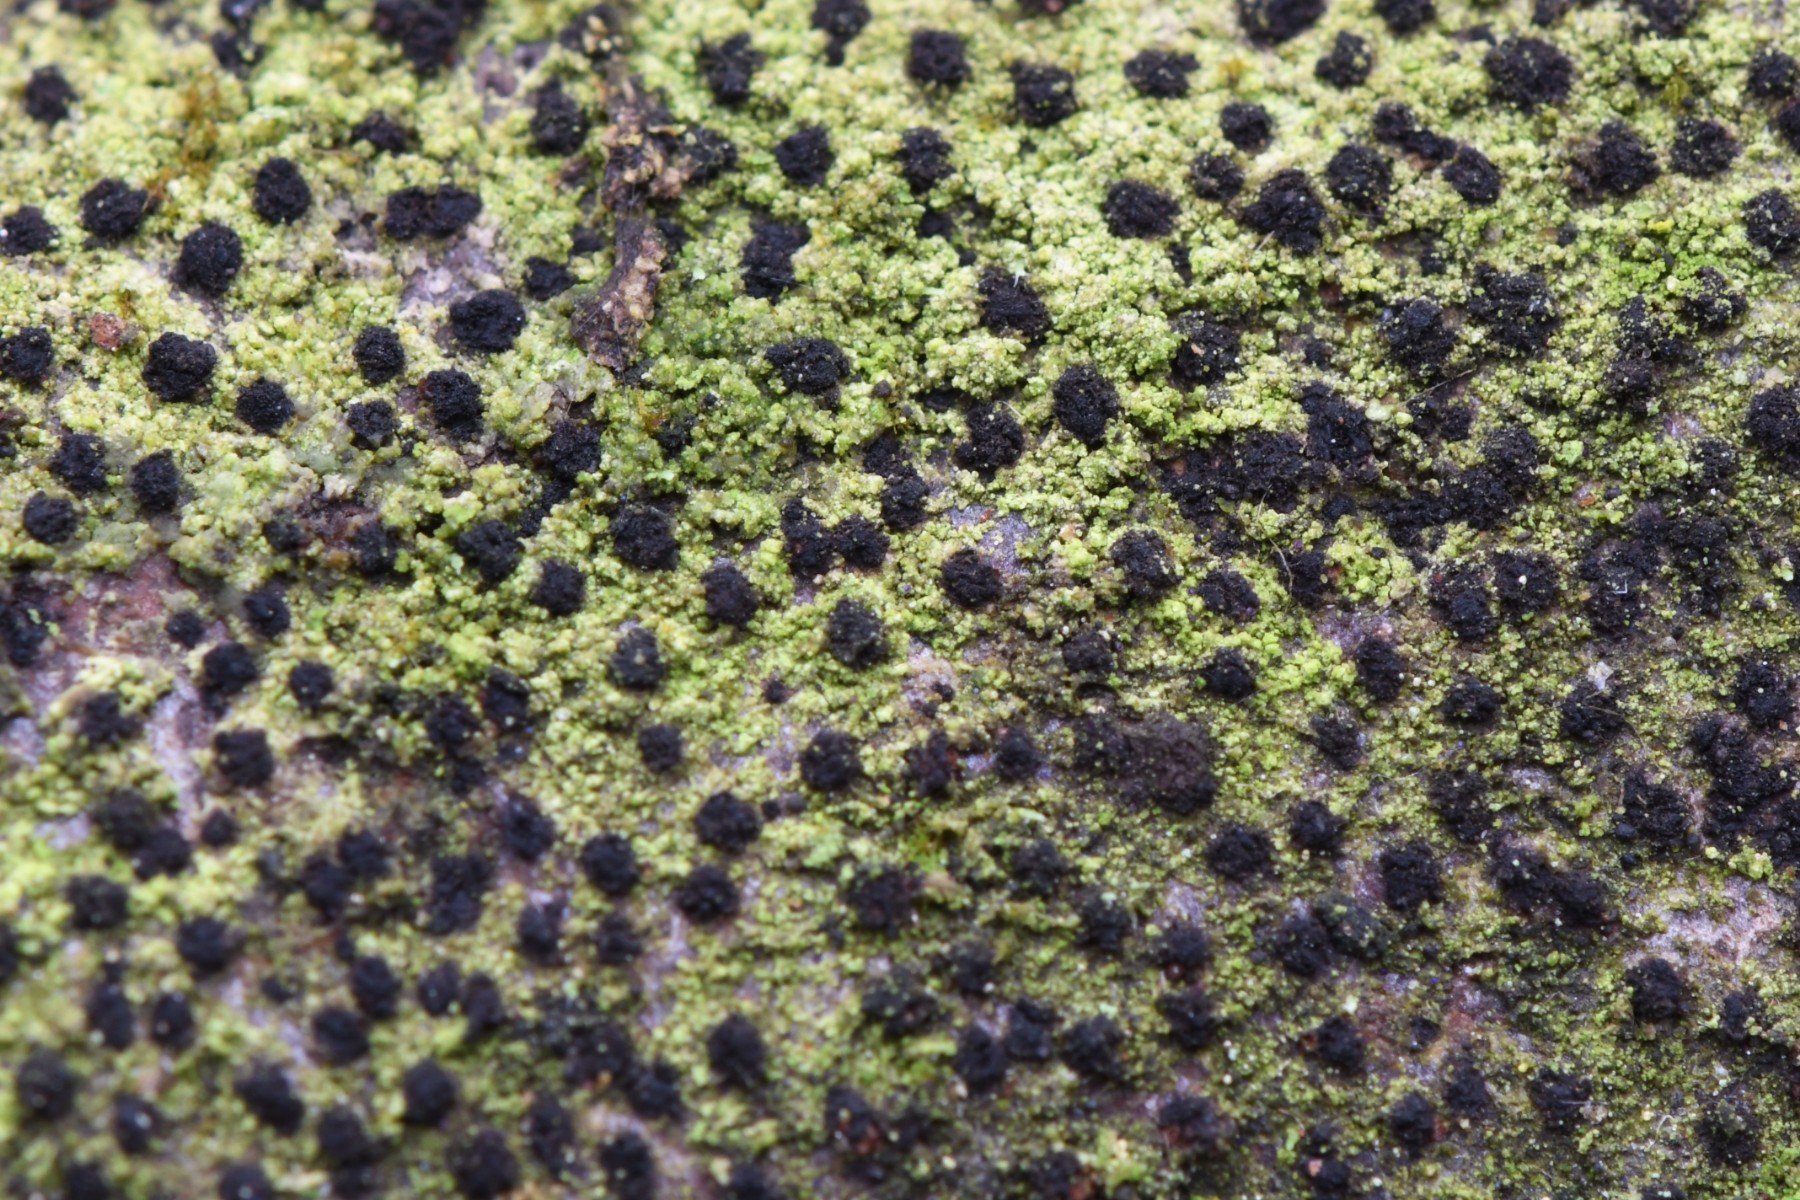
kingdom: Fungi
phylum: Ascomycota
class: Sordariomycetes
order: Xylariales
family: Diatrypaceae
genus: Eutypella
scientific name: Eutypella quaternata
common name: bøge-korsprik
